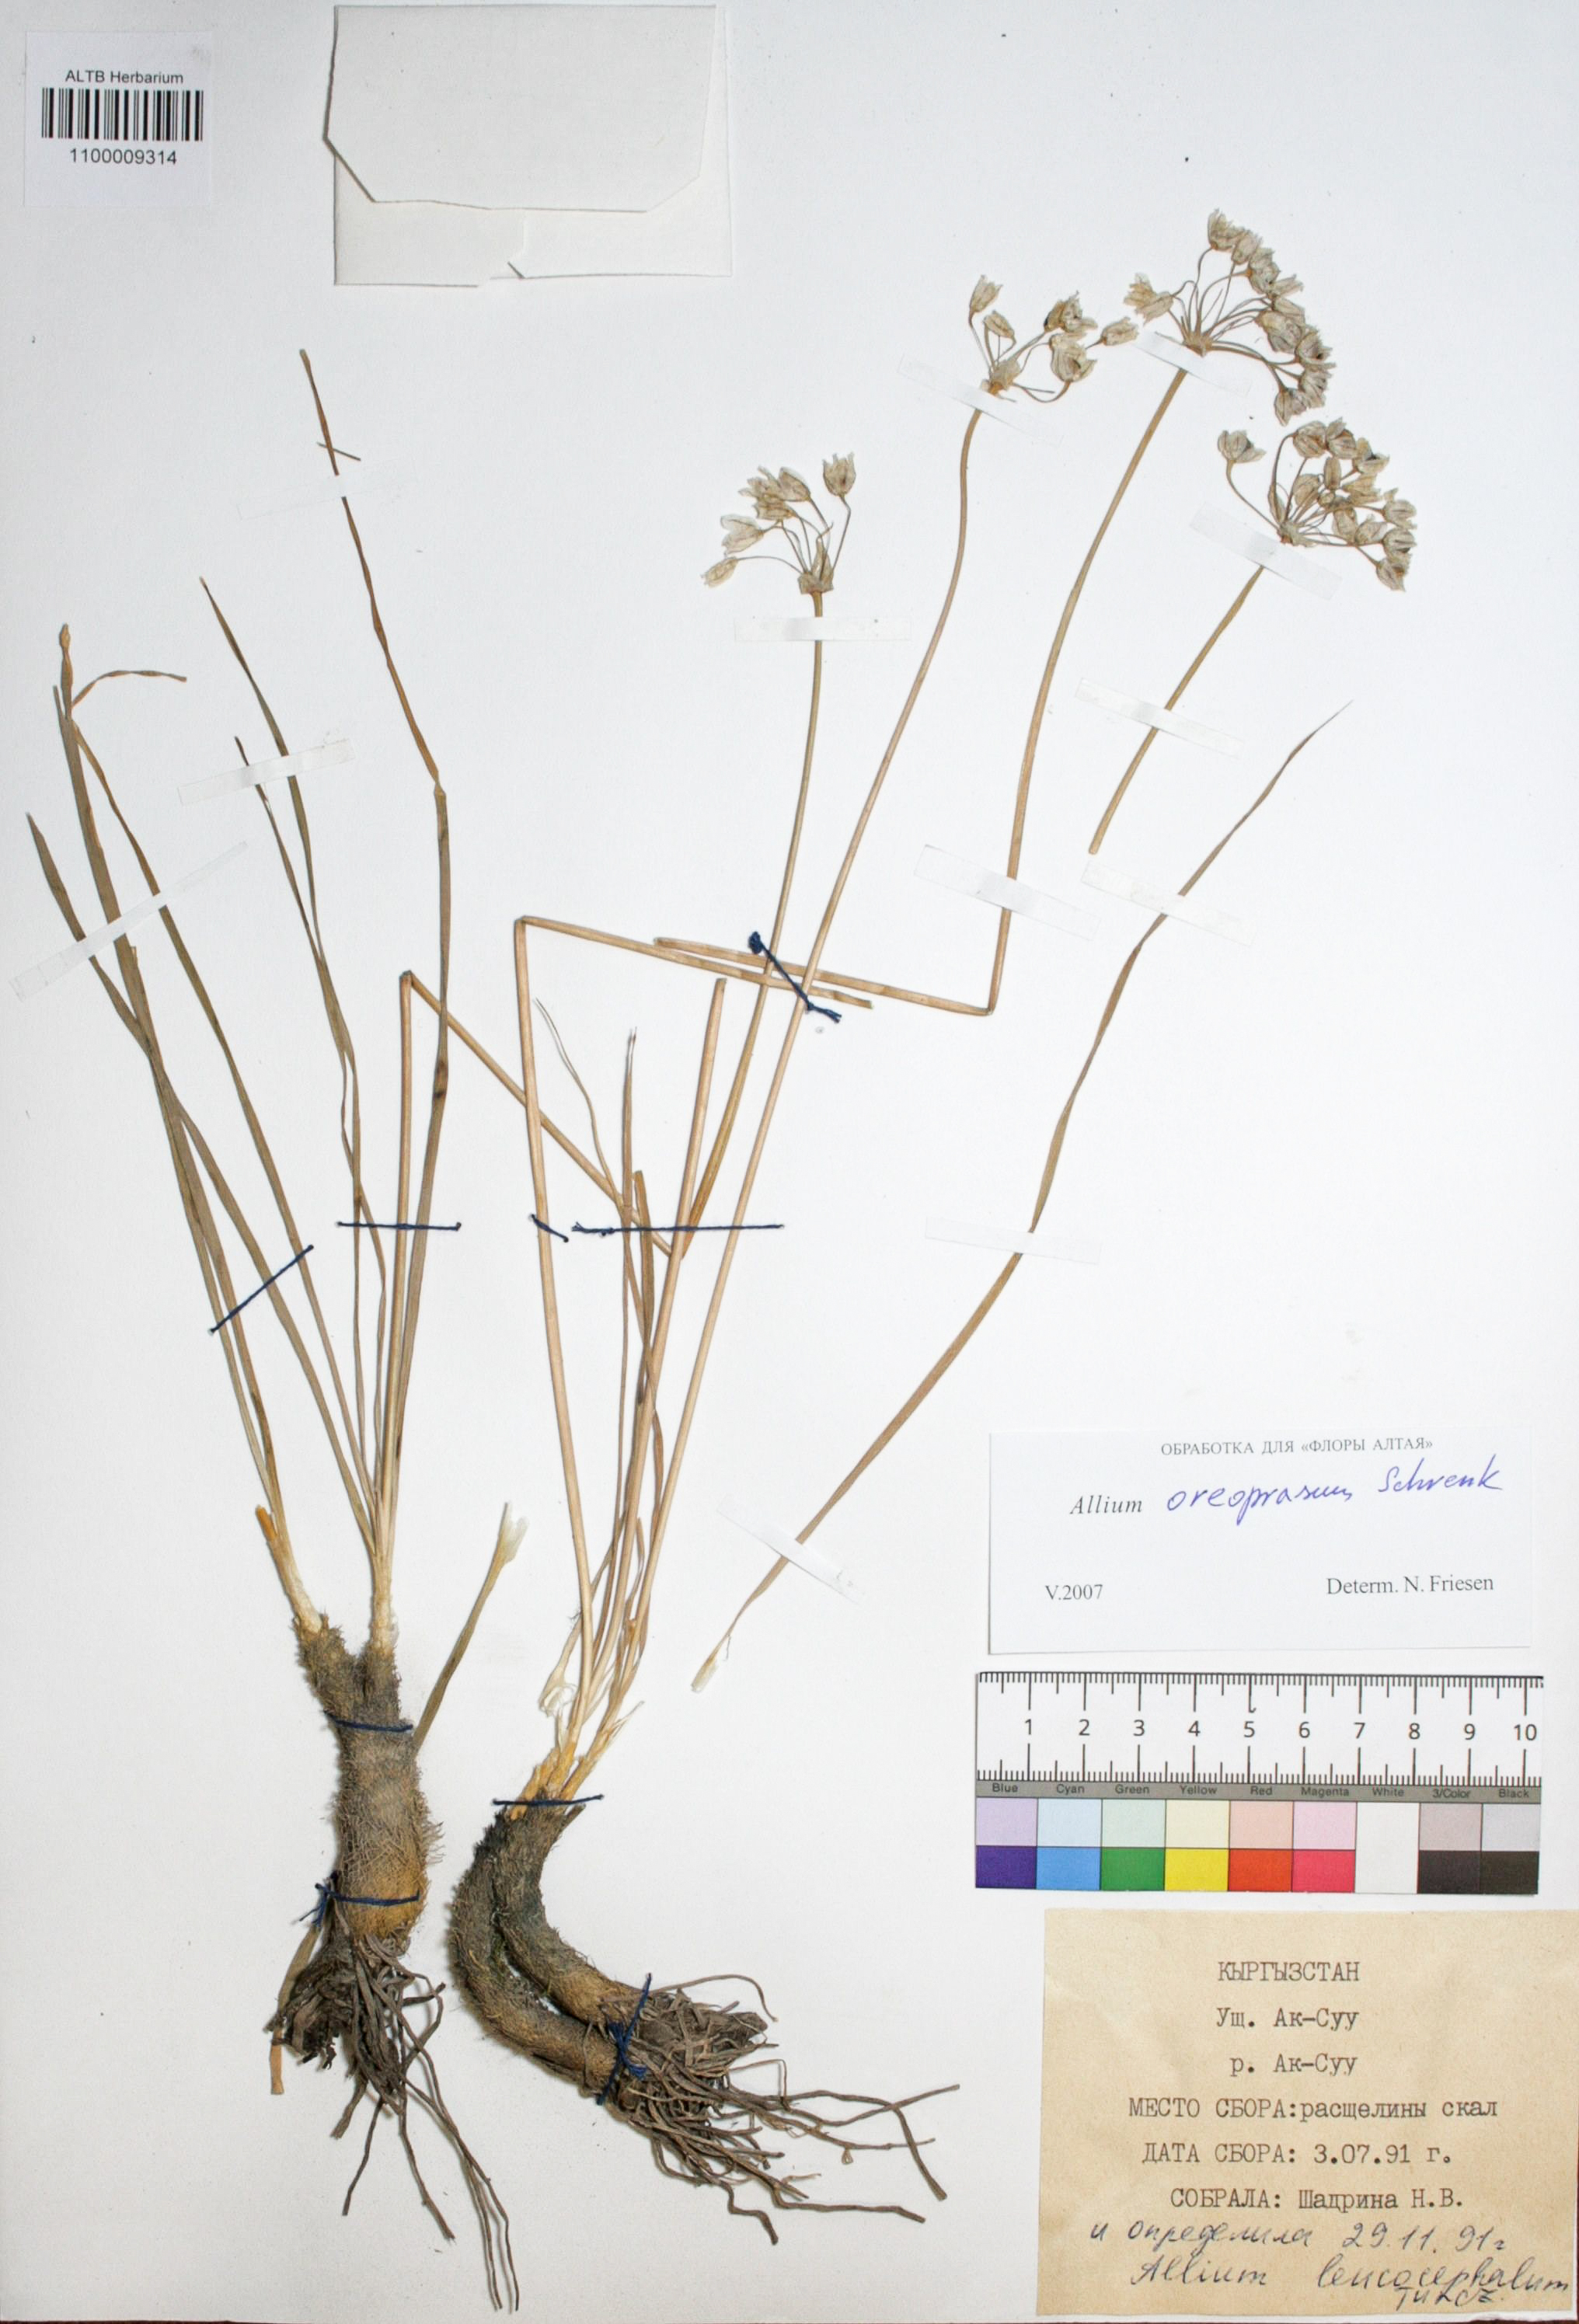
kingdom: Plantae
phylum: Tracheophyta
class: Liliopsida
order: Asparagales
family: Amaryllidaceae
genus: Allium
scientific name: Allium ampeloprasum
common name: Wild leek
